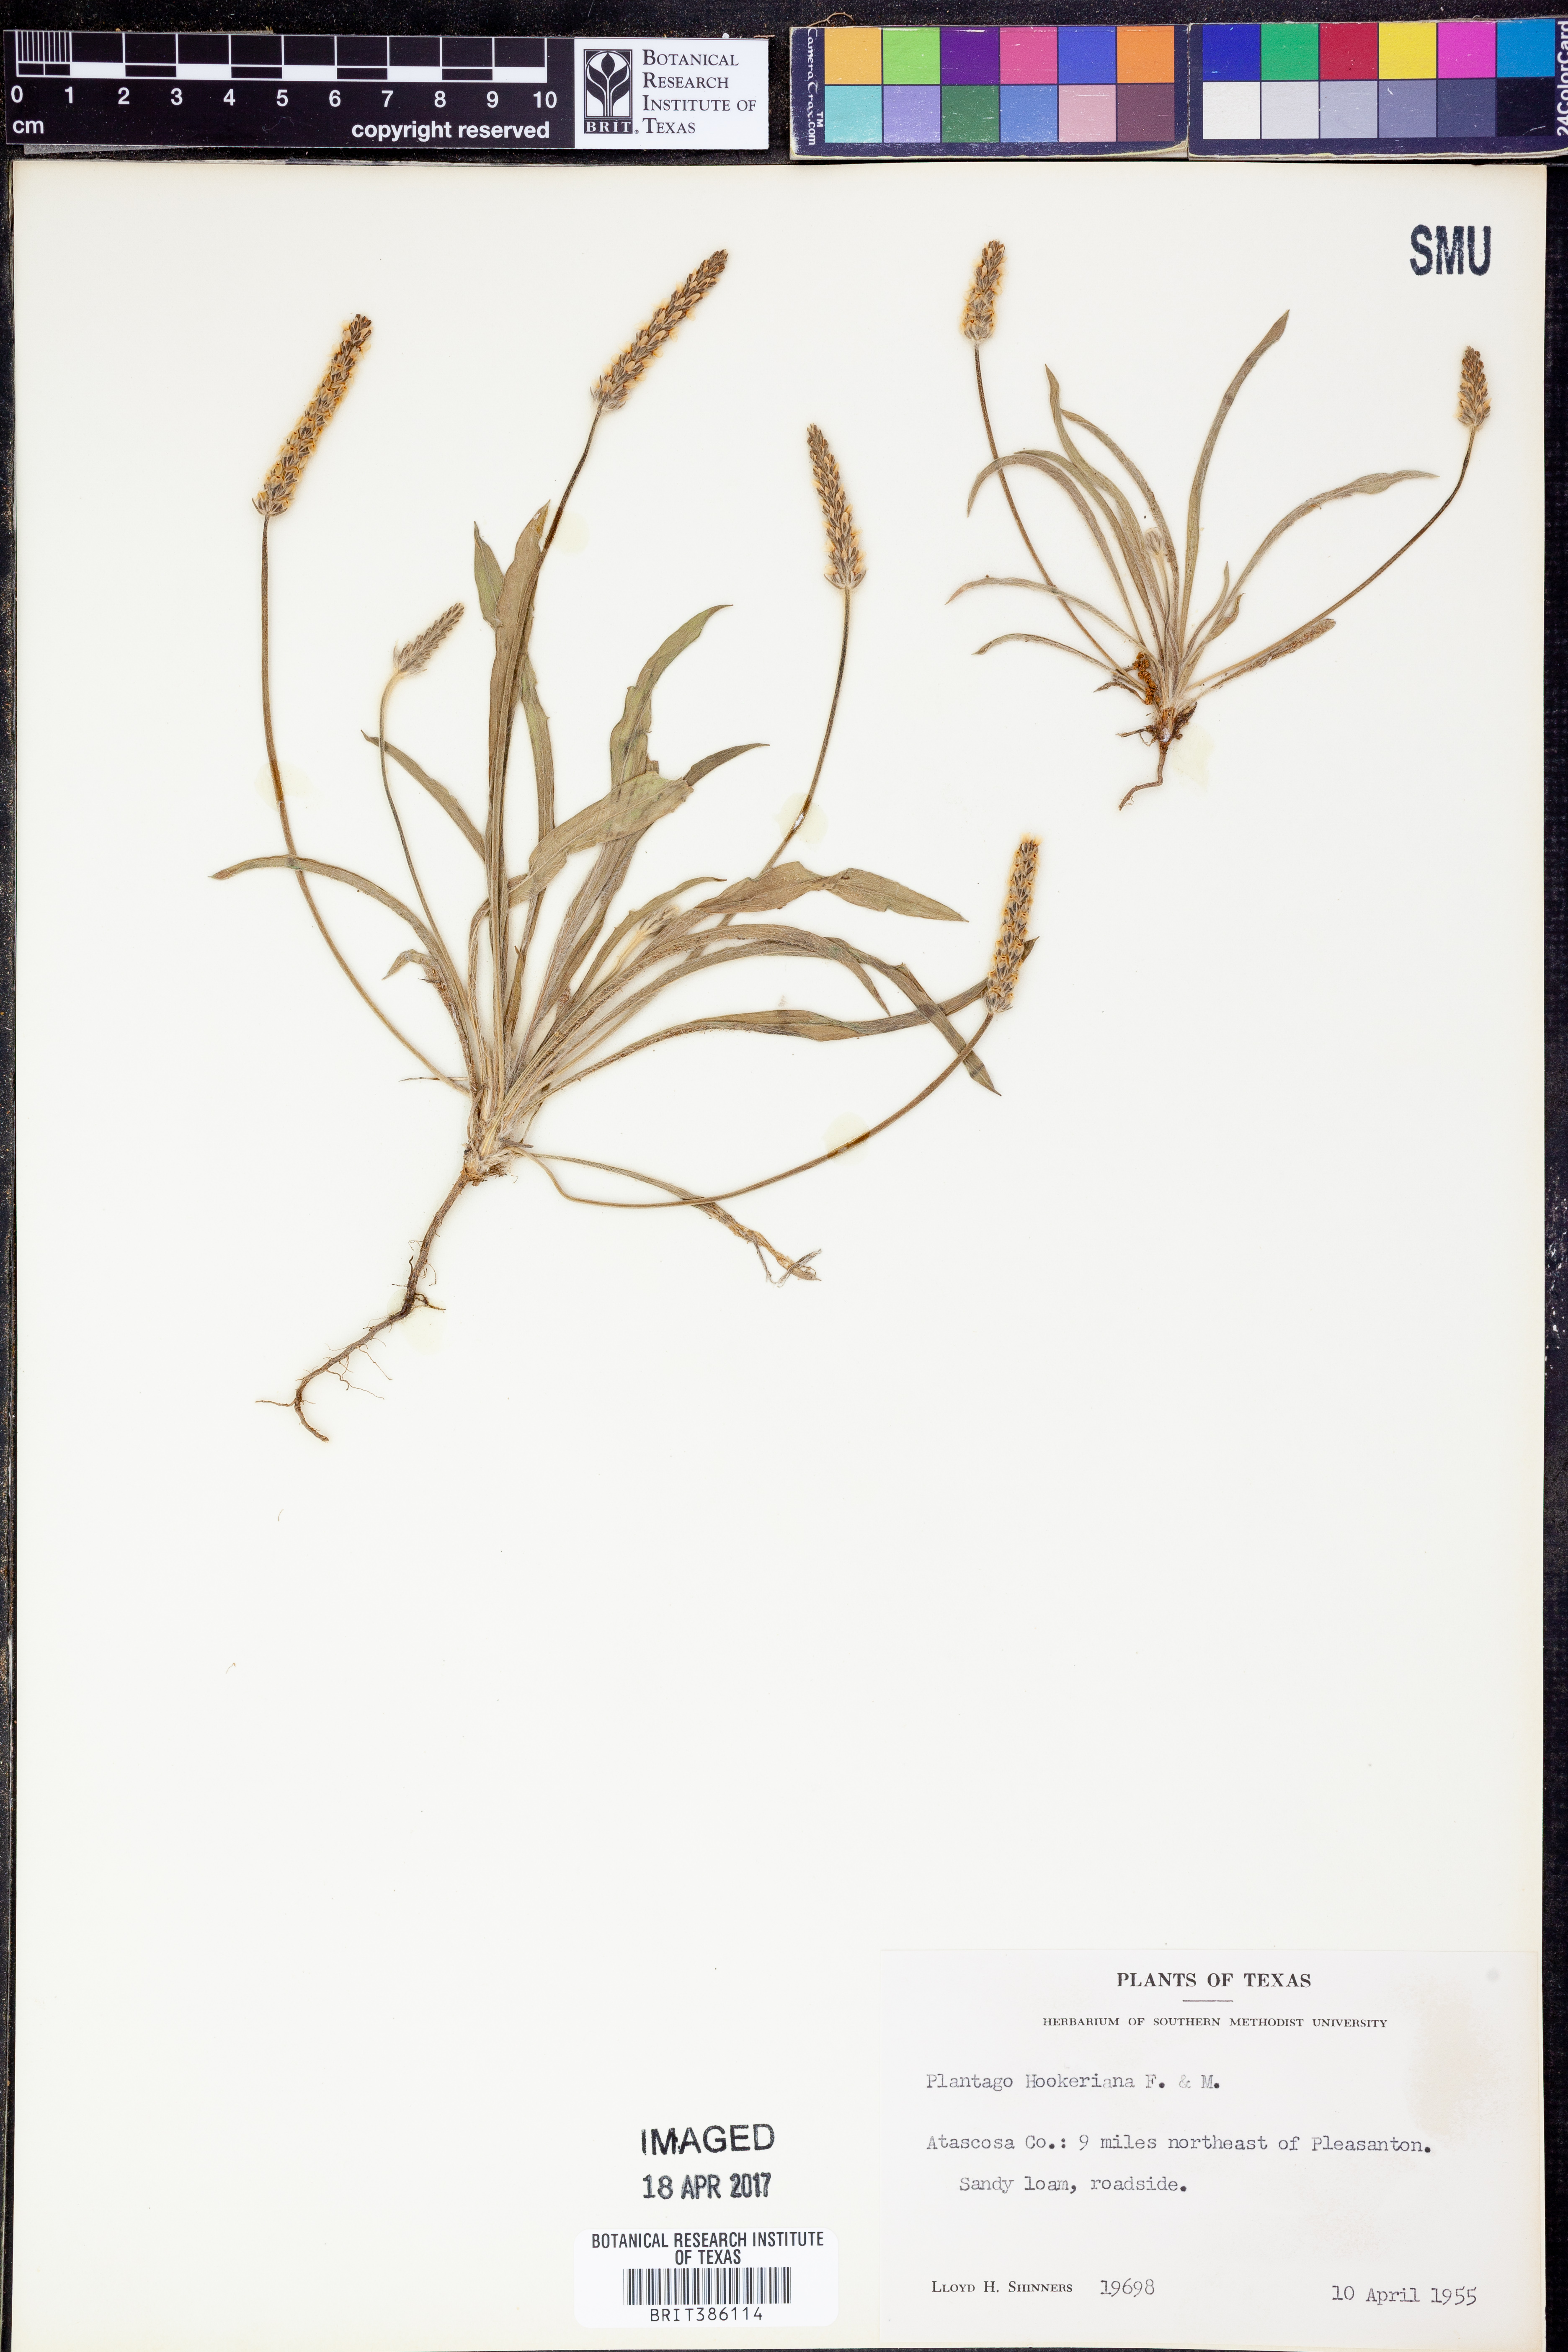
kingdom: Plantae
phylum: Tracheophyta
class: Magnoliopsida
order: Lamiales
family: Plantaginaceae
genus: Plantago
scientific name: Plantago hookeriana
